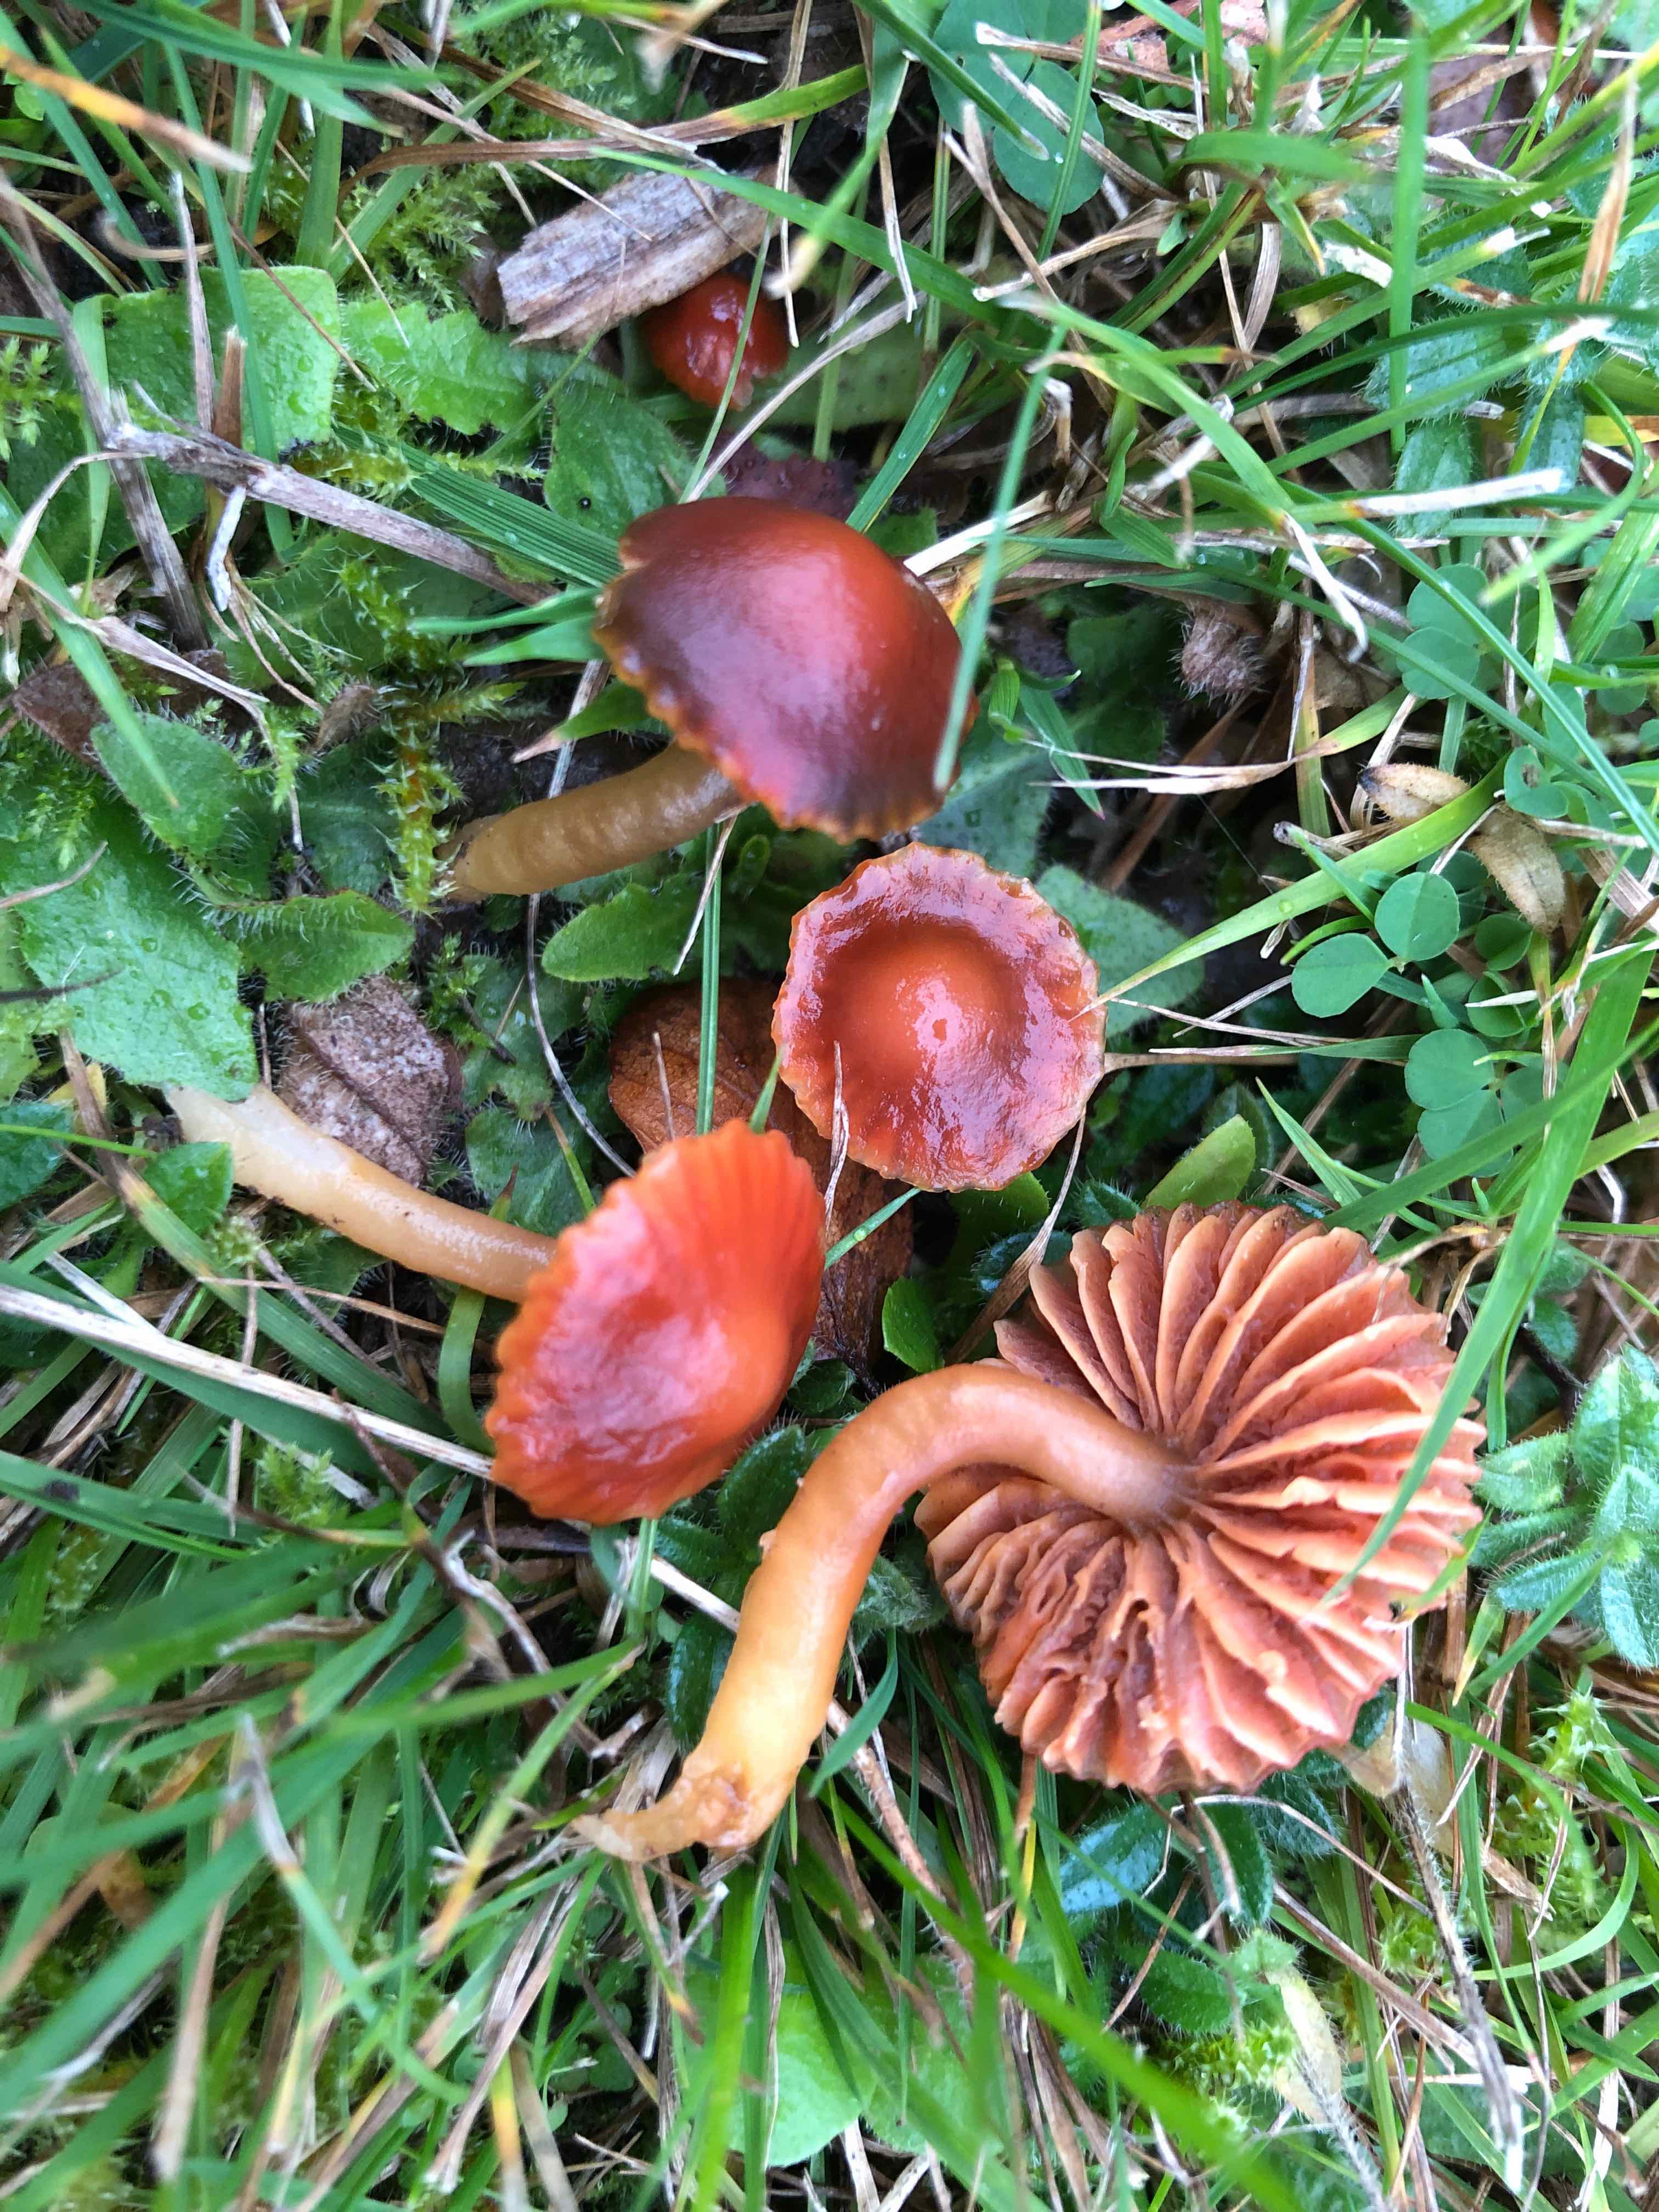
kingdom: Fungi
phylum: Basidiomycota
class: Agaricomycetes
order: Agaricales
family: Hygrophoraceae
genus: Gliophorus
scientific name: Gliophorus europerplexus
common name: Butterscotch waxcap
